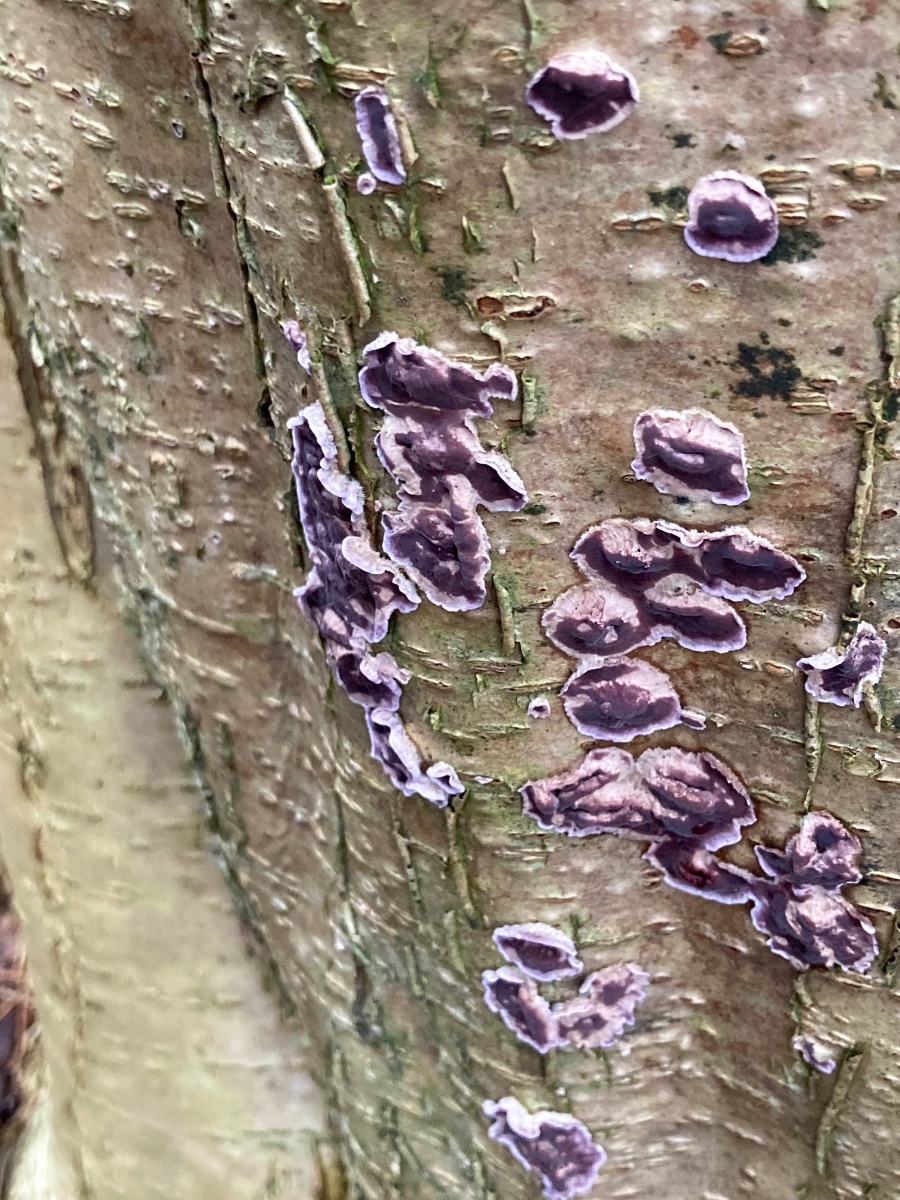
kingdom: Fungi
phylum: Basidiomycota
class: Agaricomycetes
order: Agaricales
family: Cyphellaceae
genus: Chondrostereum
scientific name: Chondrostereum purpureum
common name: purpurlædersvamp
